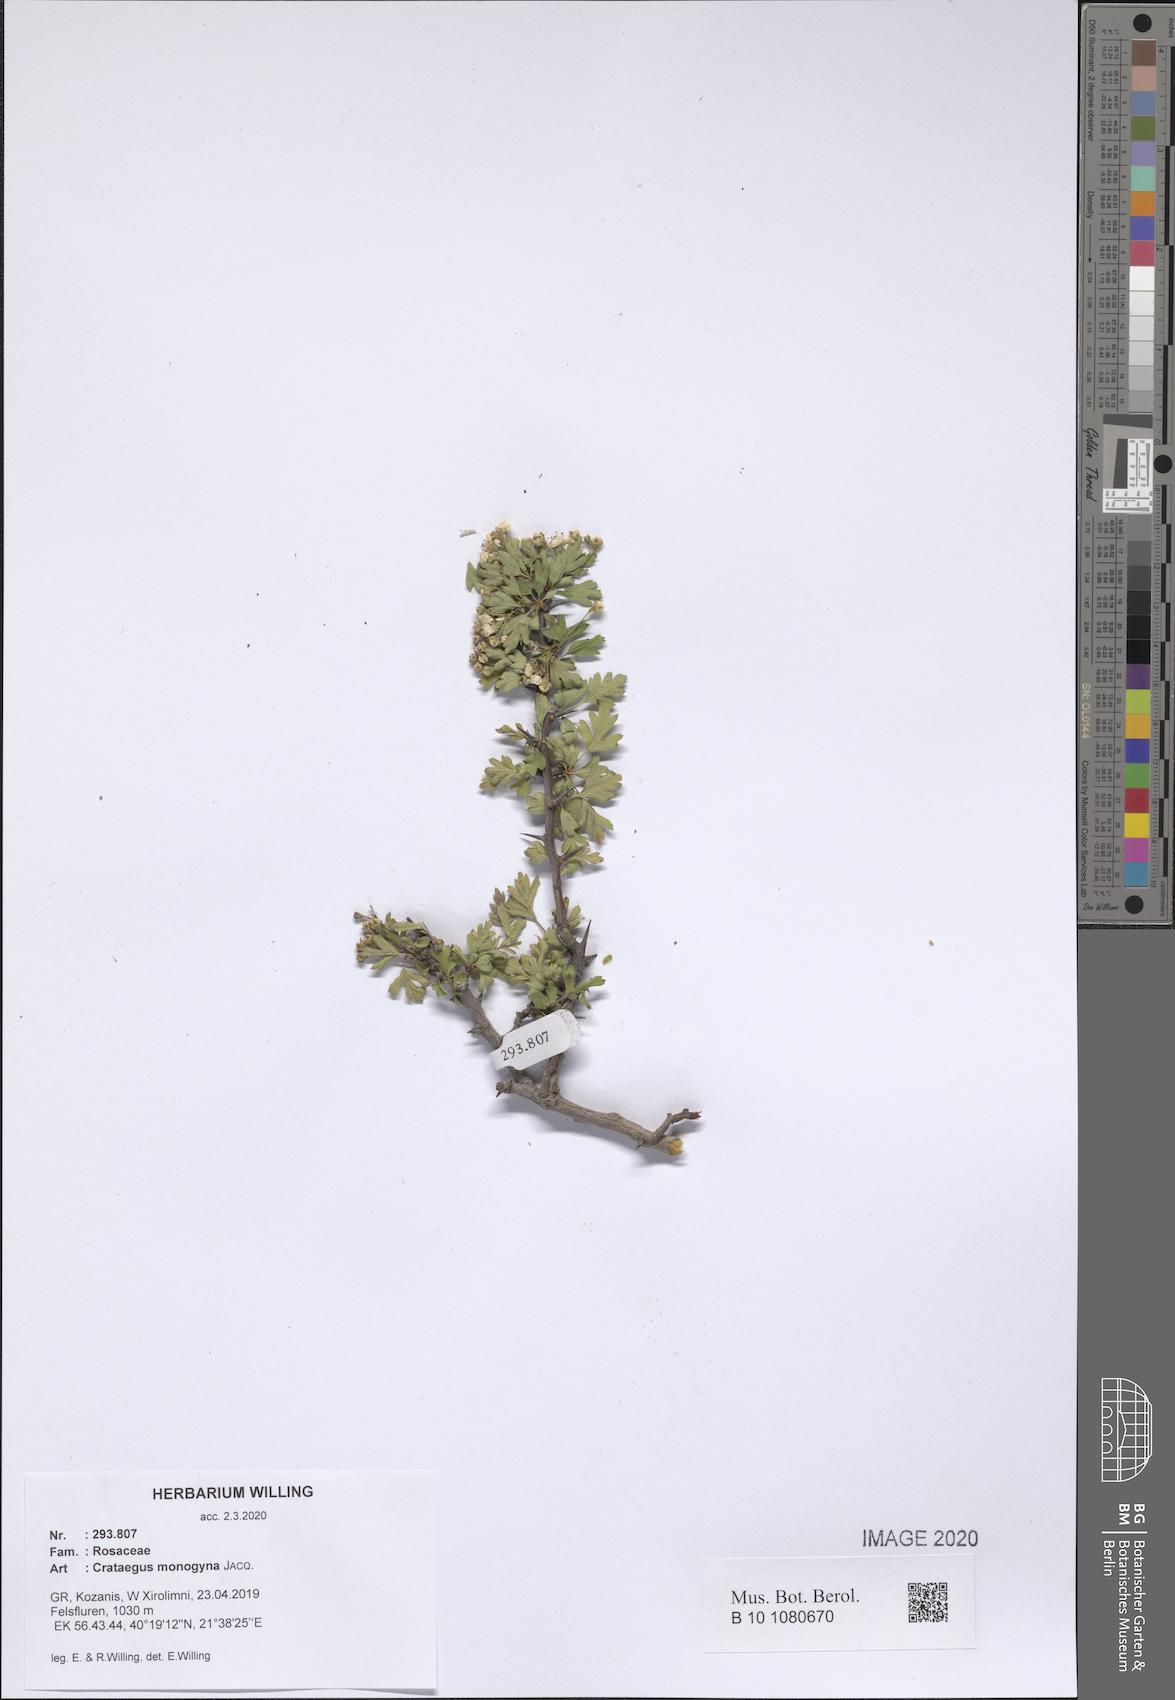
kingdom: Plantae
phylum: Tracheophyta
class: Magnoliopsida
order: Rosales
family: Rosaceae
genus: Crataegus
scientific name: Crataegus monogyna
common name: Hawthorn
